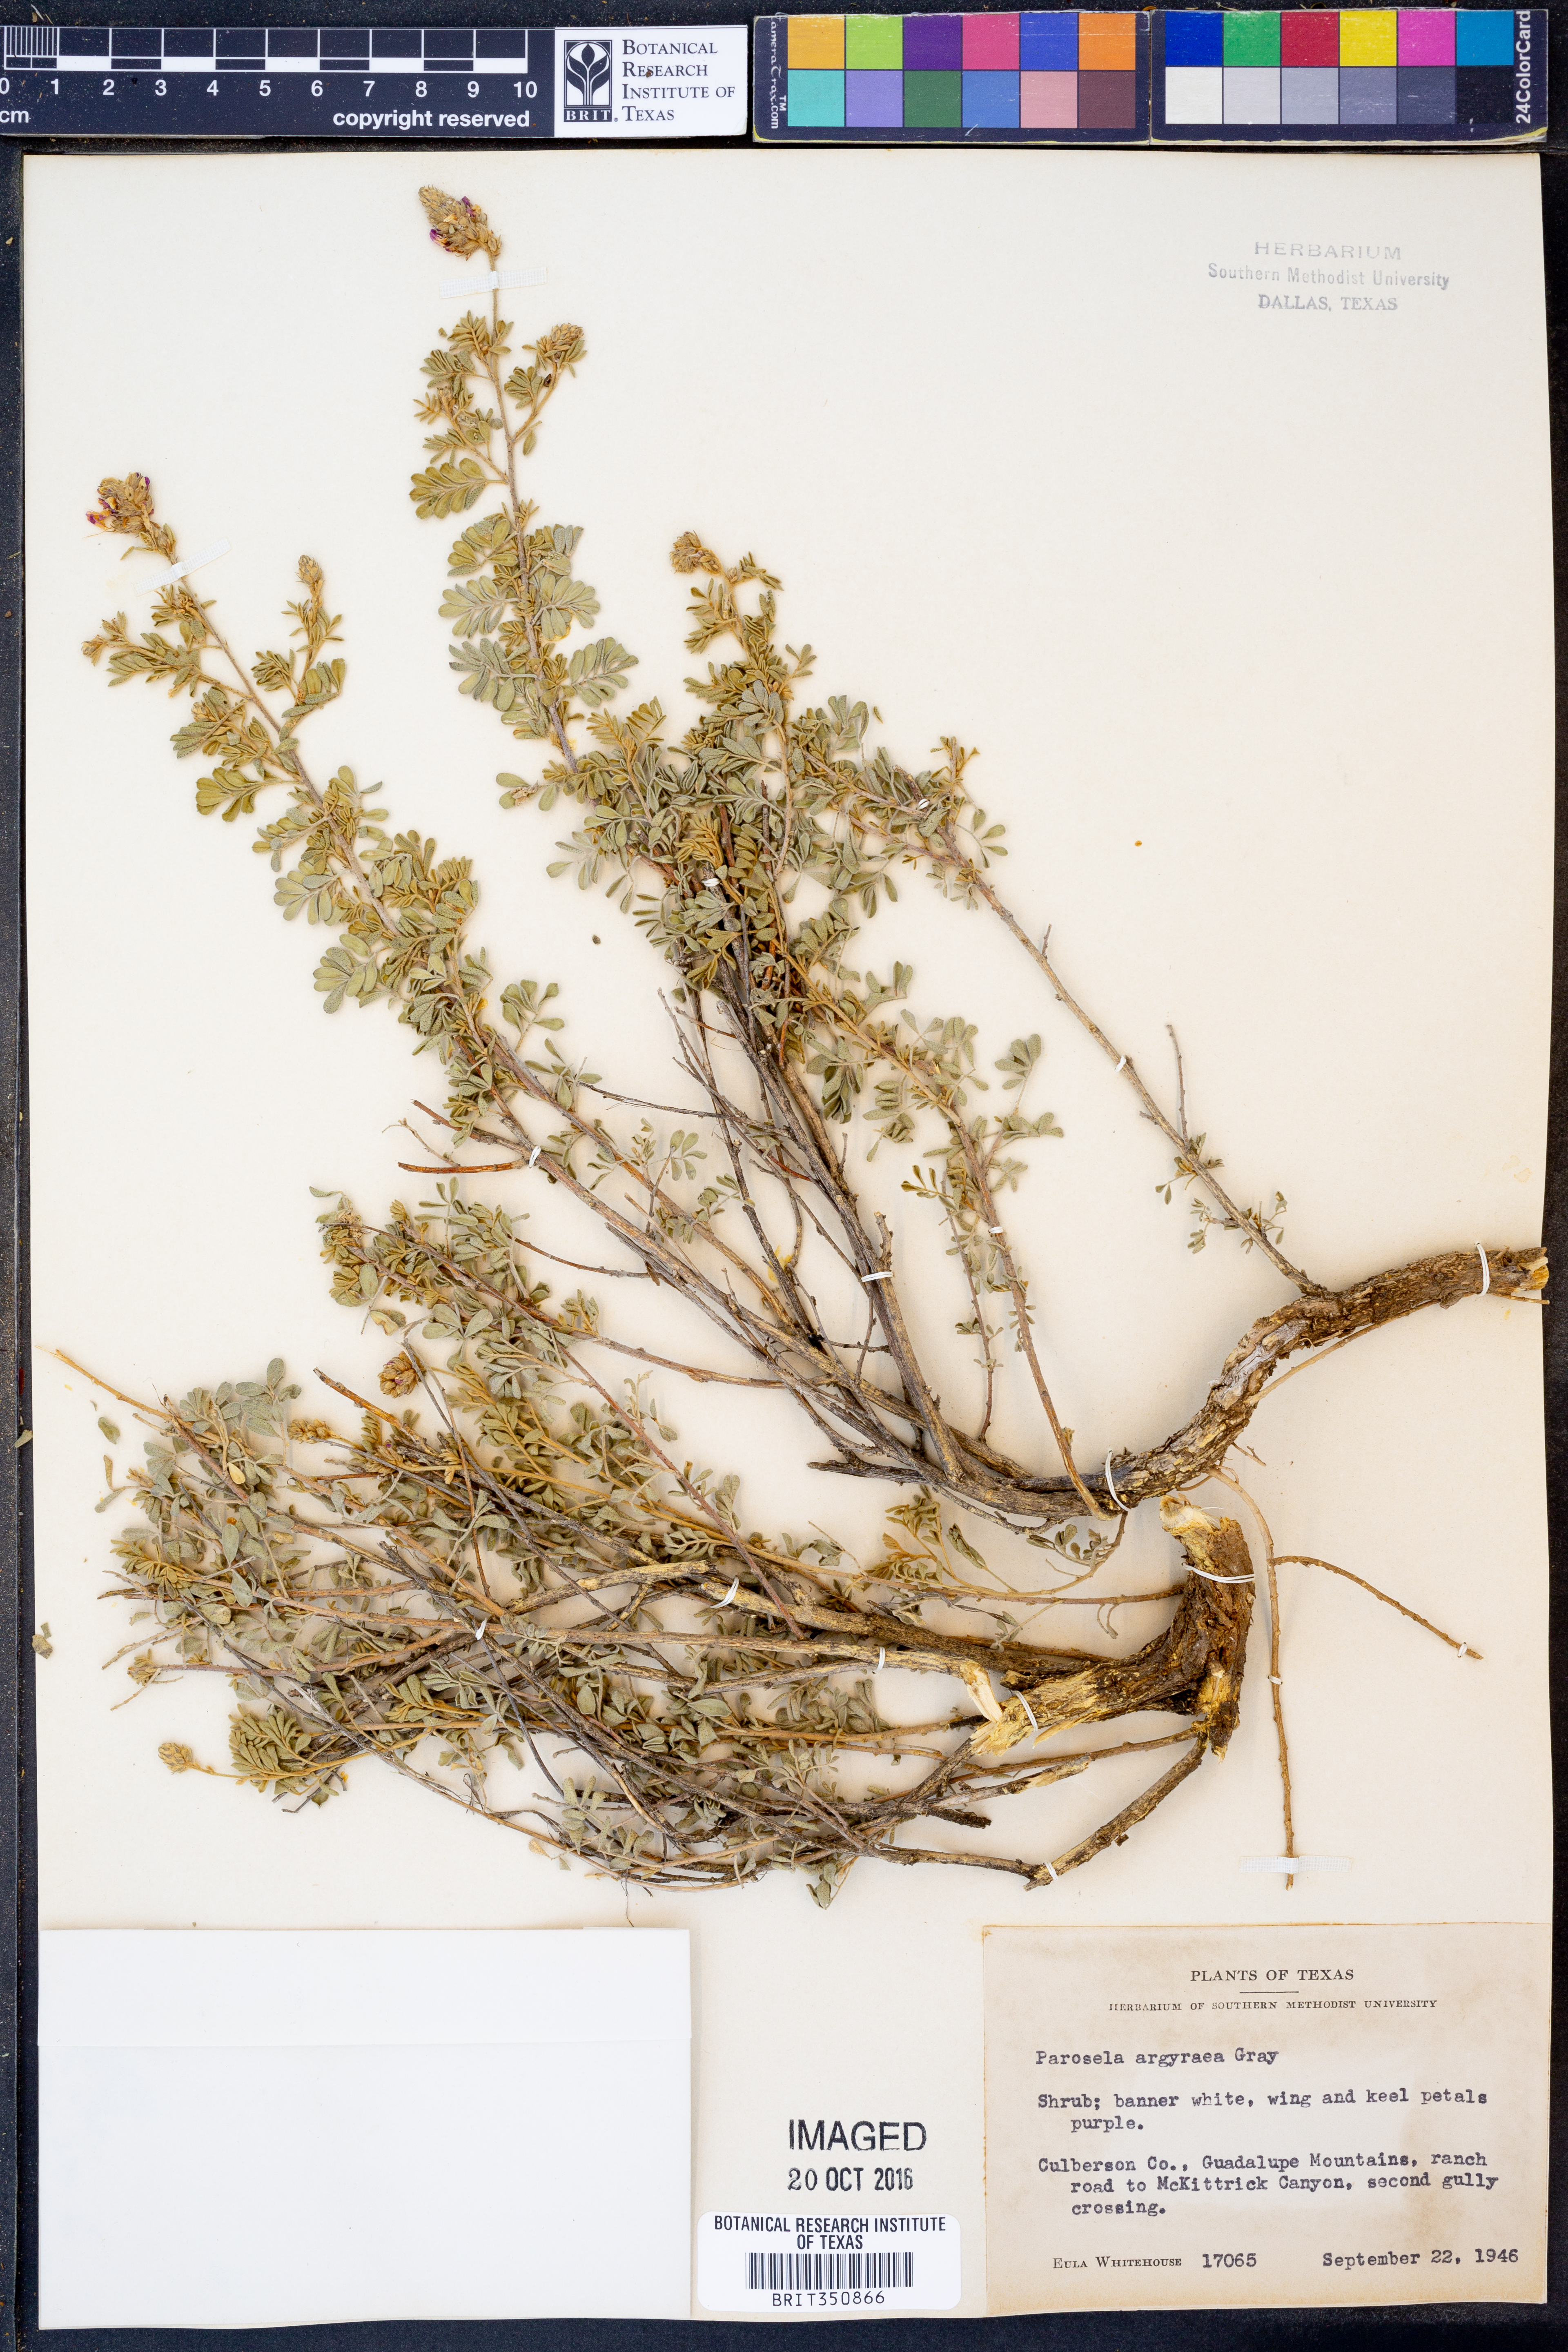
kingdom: Plantae
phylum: Tracheophyta
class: Magnoliopsida
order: Fabales
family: Fabaceae
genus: Dalea
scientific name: Dalea bicolor
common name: Silver prairie-clover
